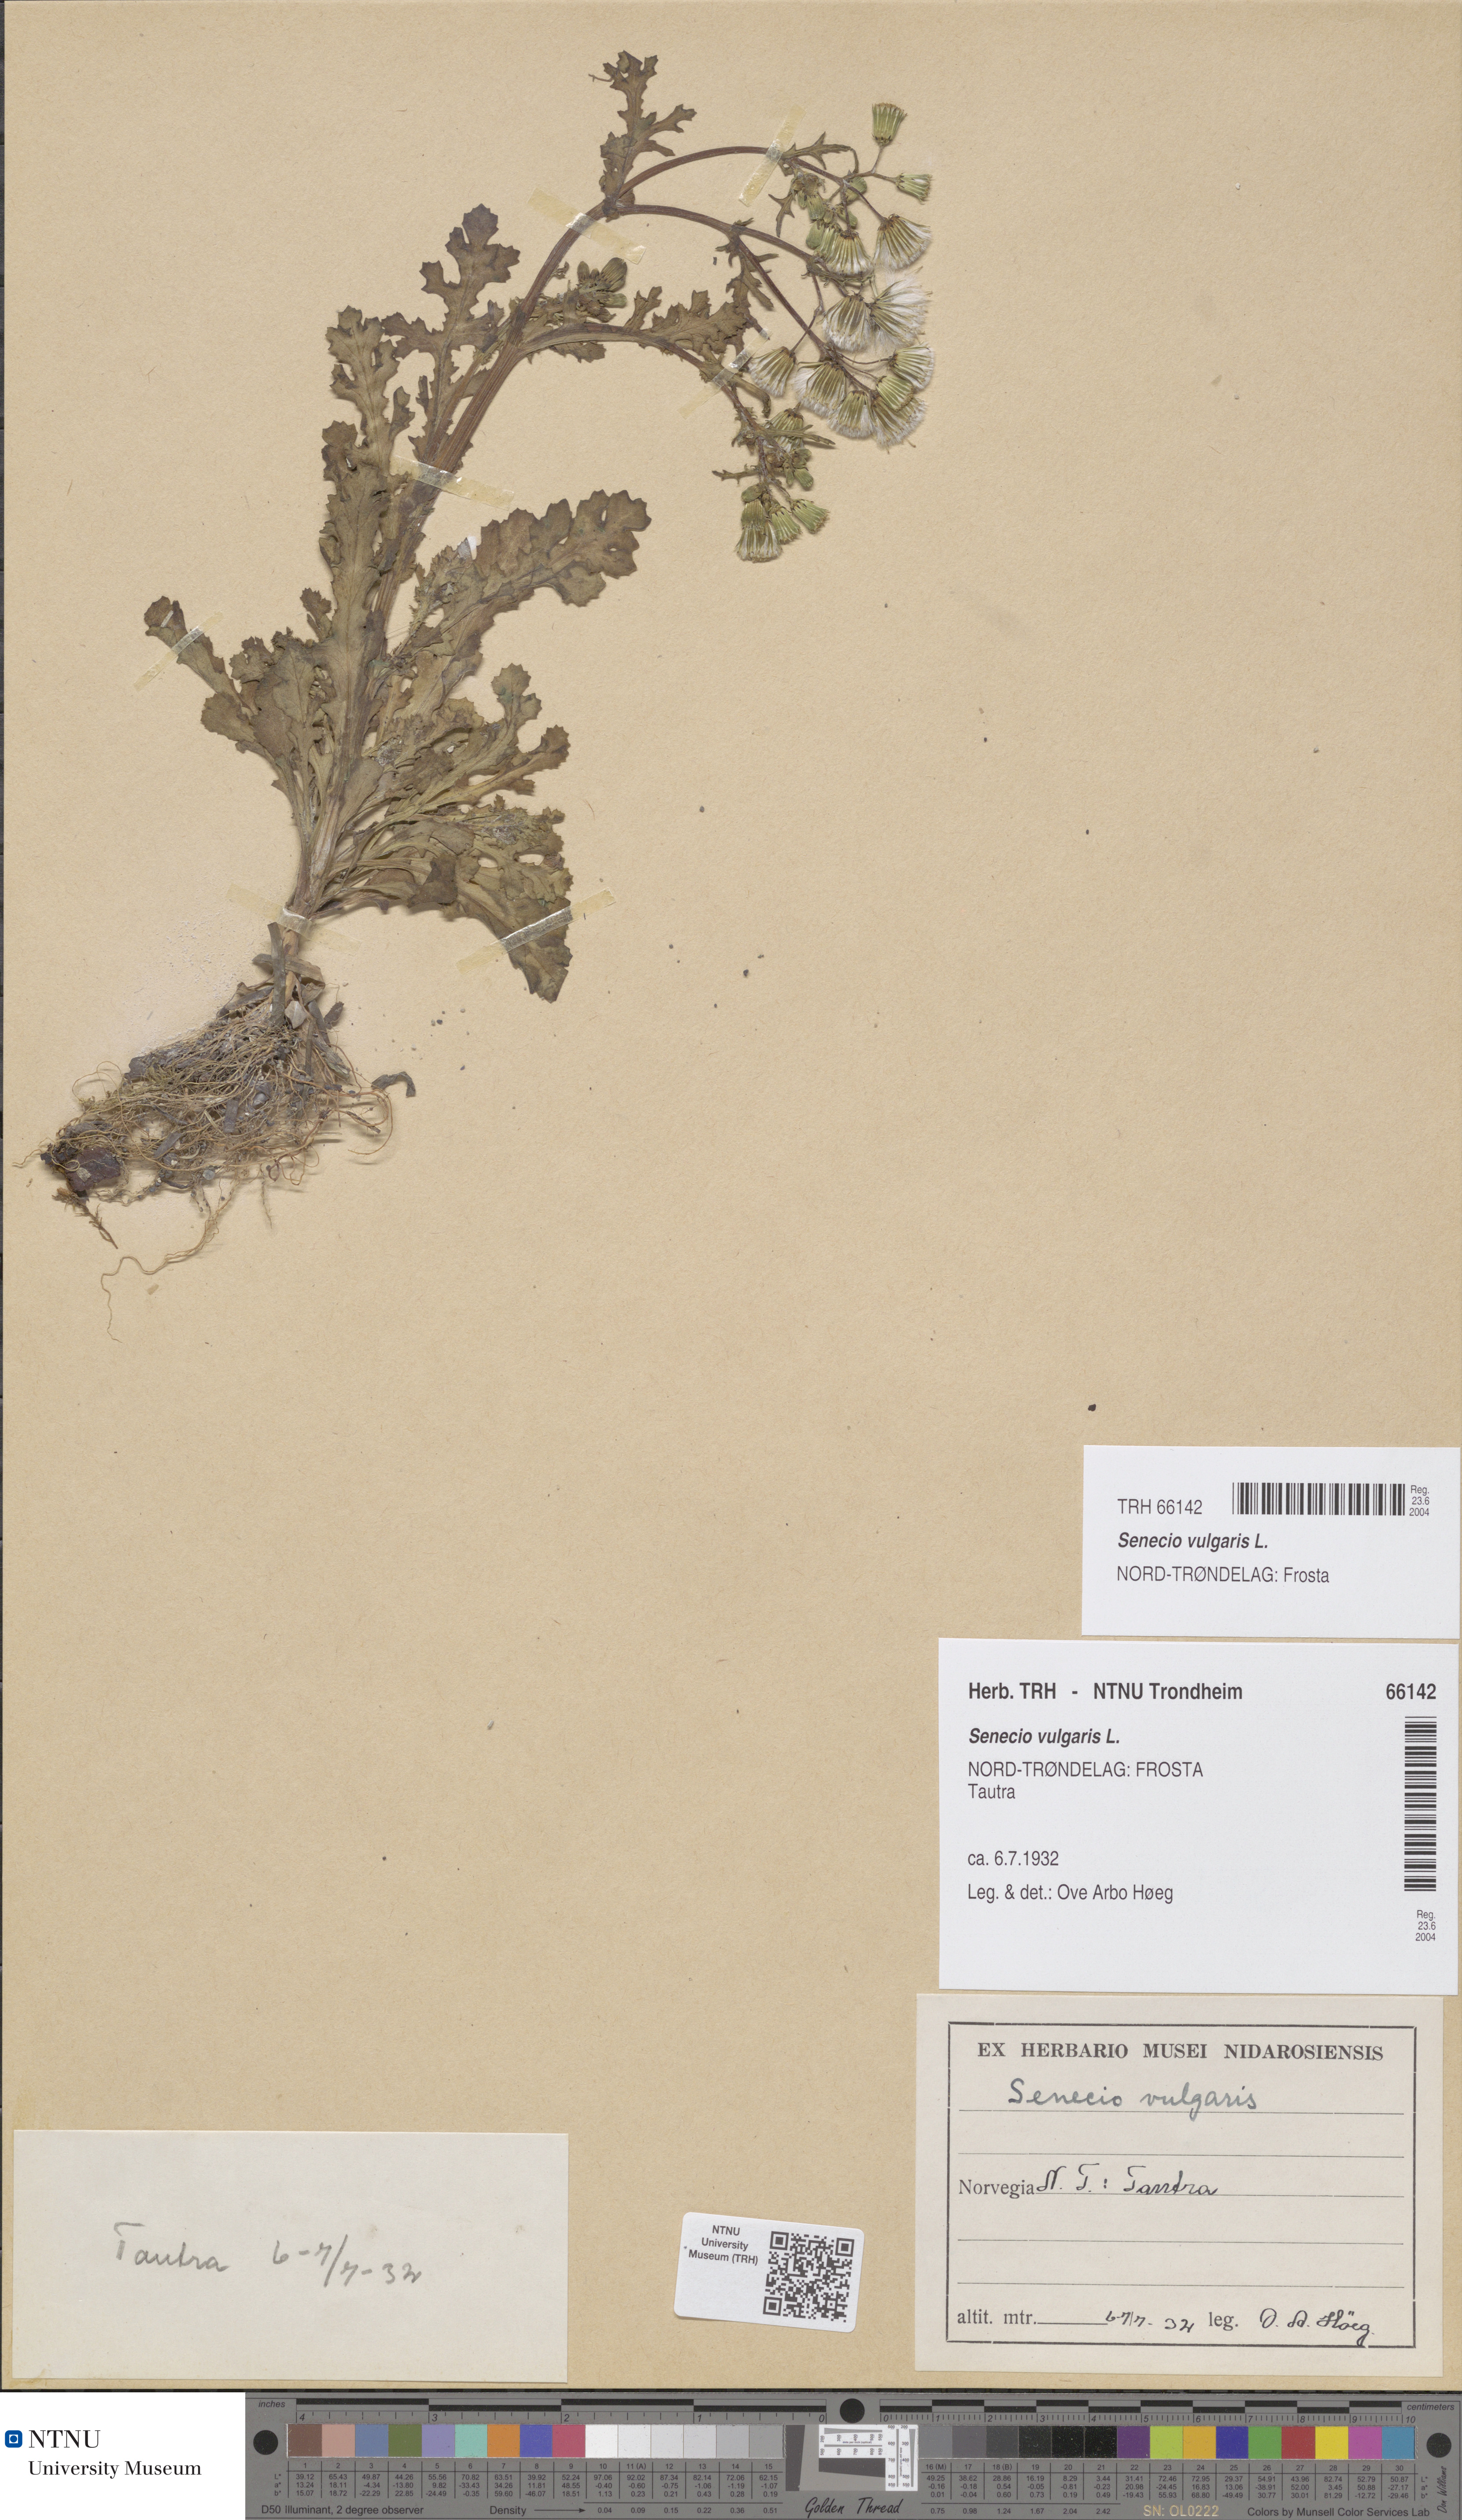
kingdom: Plantae
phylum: Tracheophyta
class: Magnoliopsida
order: Asterales
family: Asteraceae
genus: Senecio
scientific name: Senecio vulgaris
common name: Old-man-in-the-spring
